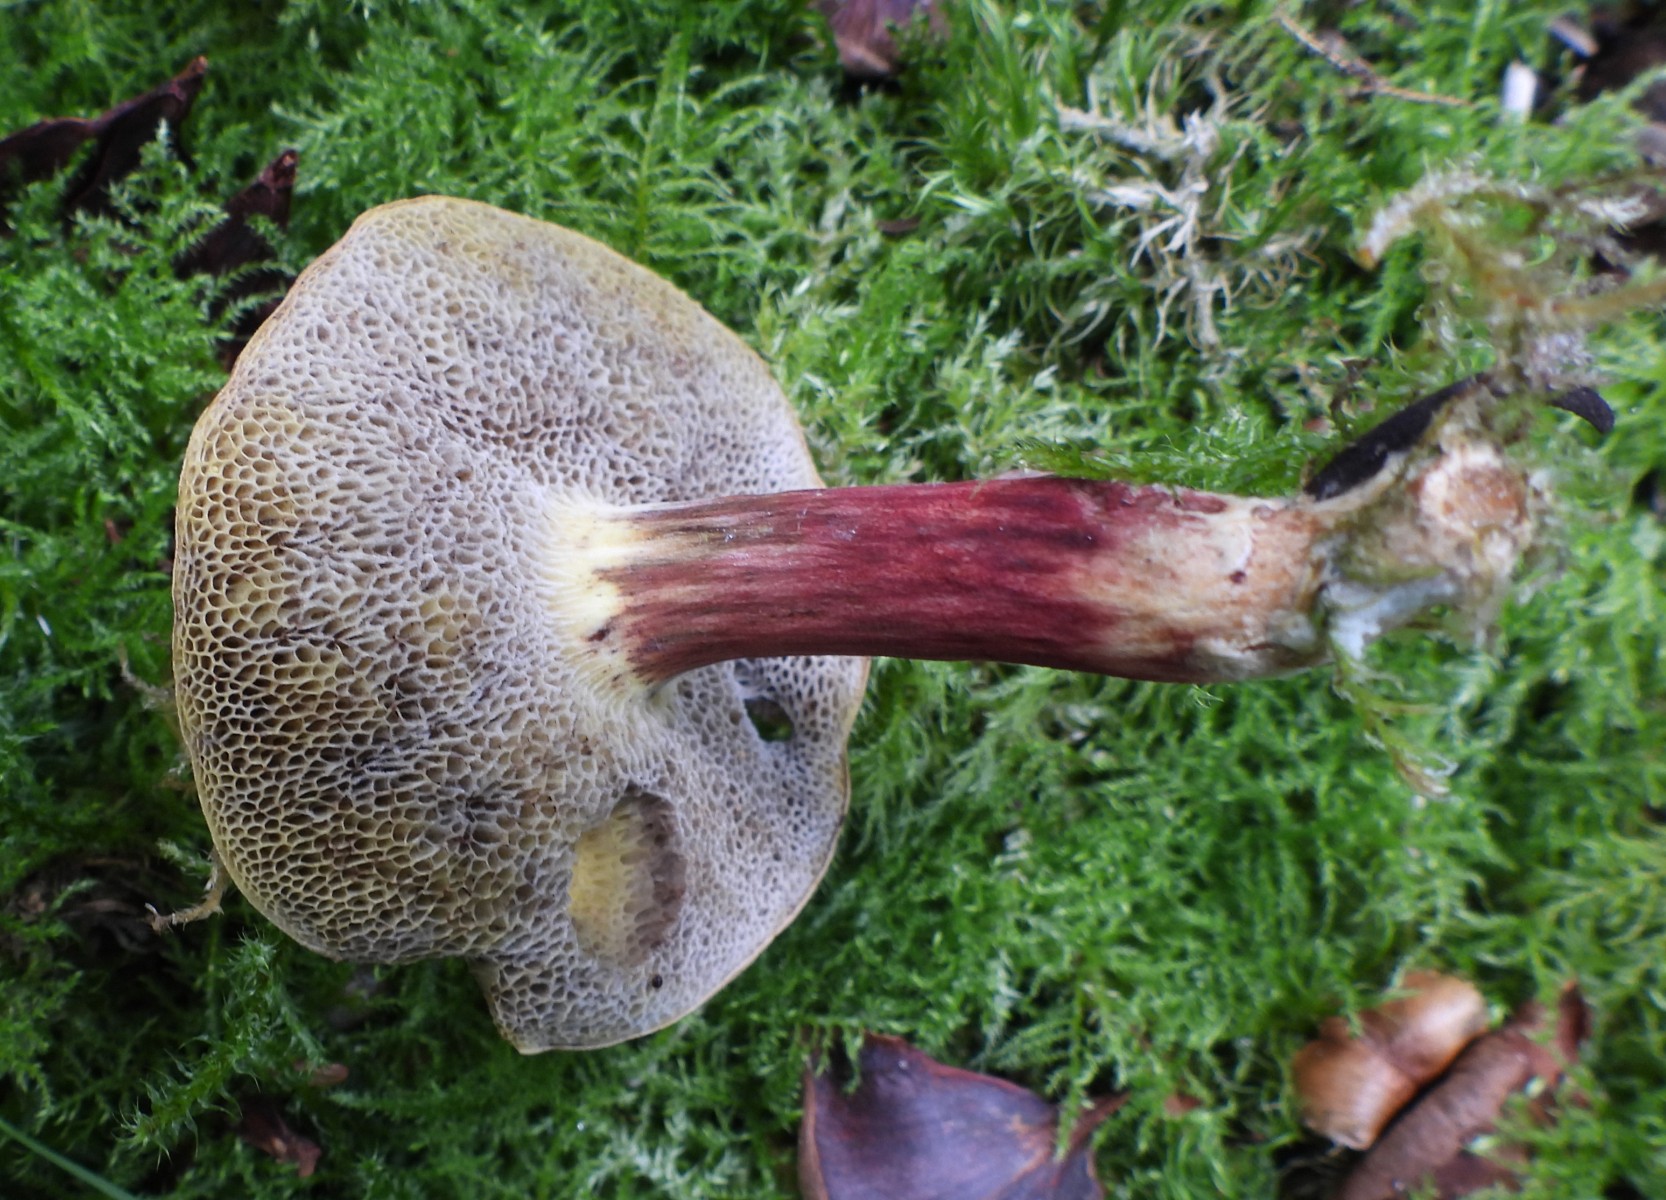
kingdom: Fungi
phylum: Basidiomycota
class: Agaricomycetes
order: Boletales
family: Boletaceae
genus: Xerocomellus
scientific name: Xerocomellus chrysenteron
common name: rødsprukken rørhat
